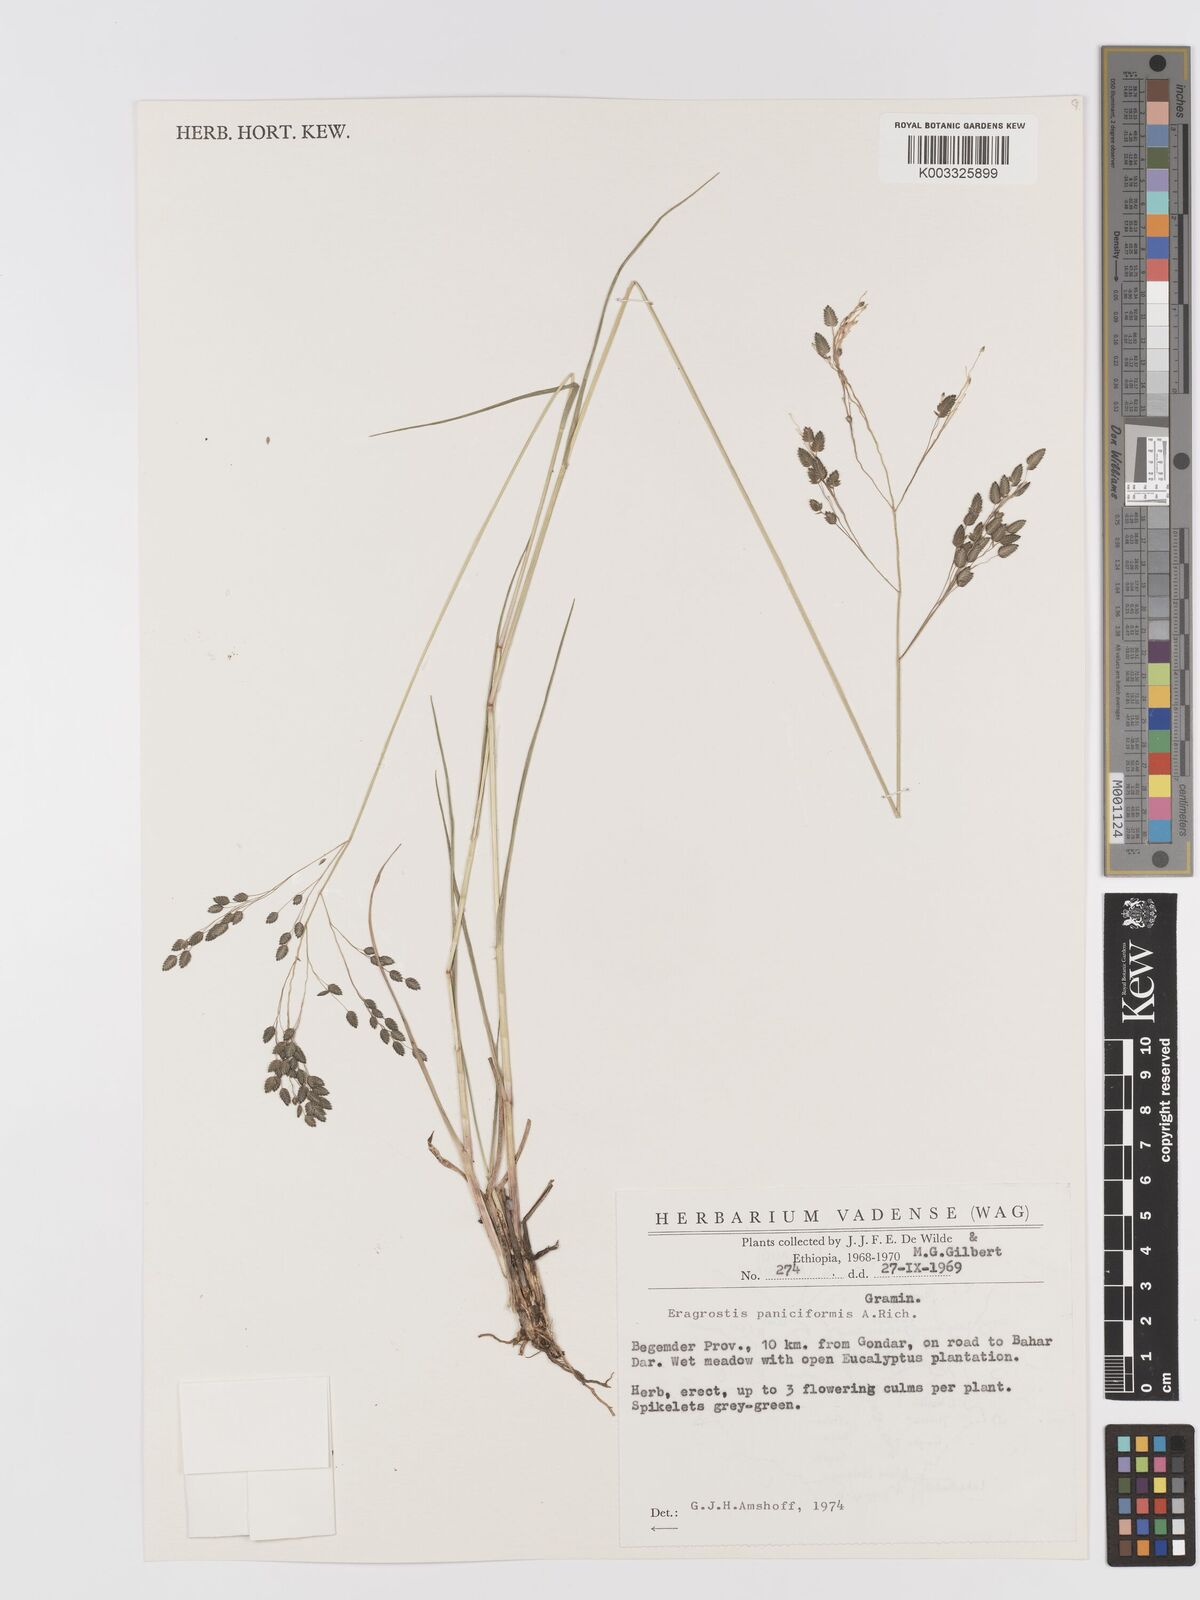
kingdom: Plantae
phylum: Tracheophyta
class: Liliopsida
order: Poales
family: Poaceae
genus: Eragrostis
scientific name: Eragrostis paniciformis
